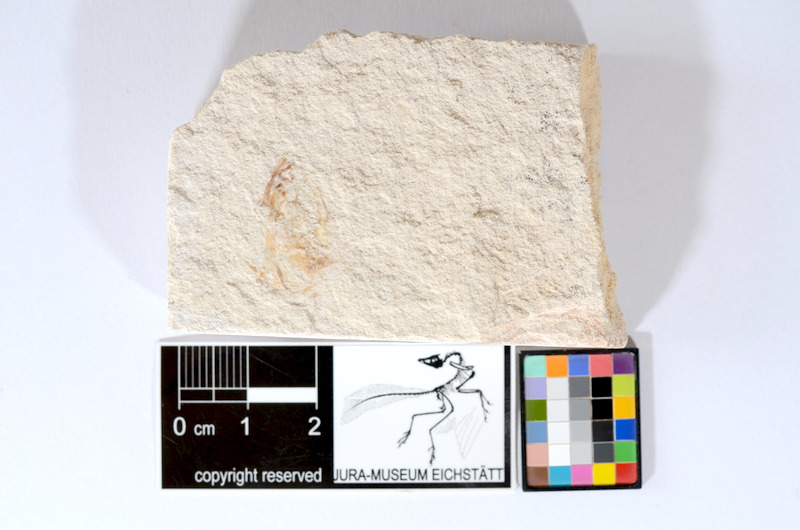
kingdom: Animalia
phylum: Chordata
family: Ascalaboidae
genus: Tharsis
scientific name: Tharsis dubius
